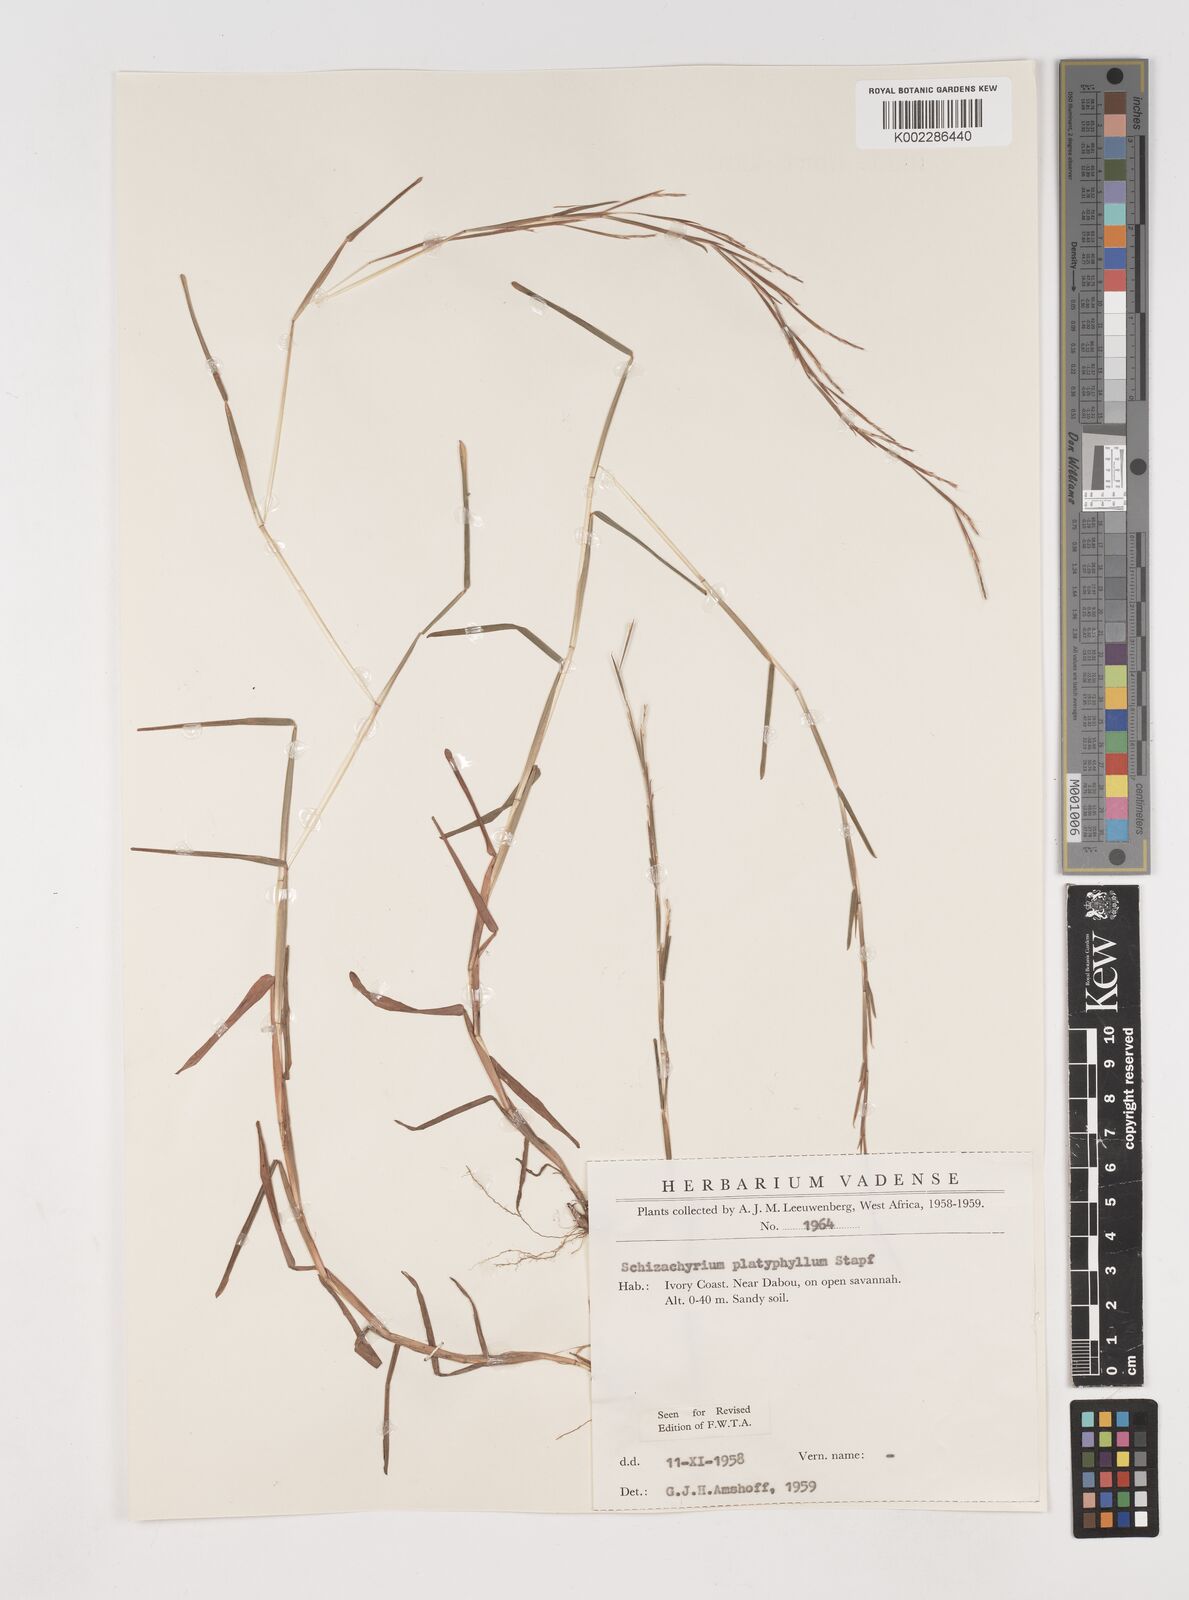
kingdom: Plantae
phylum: Tracheophyta
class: Liliopsida
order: Poales
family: Poaceae
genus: Schizachyrium
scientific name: Schizachyrium platyphyllum
